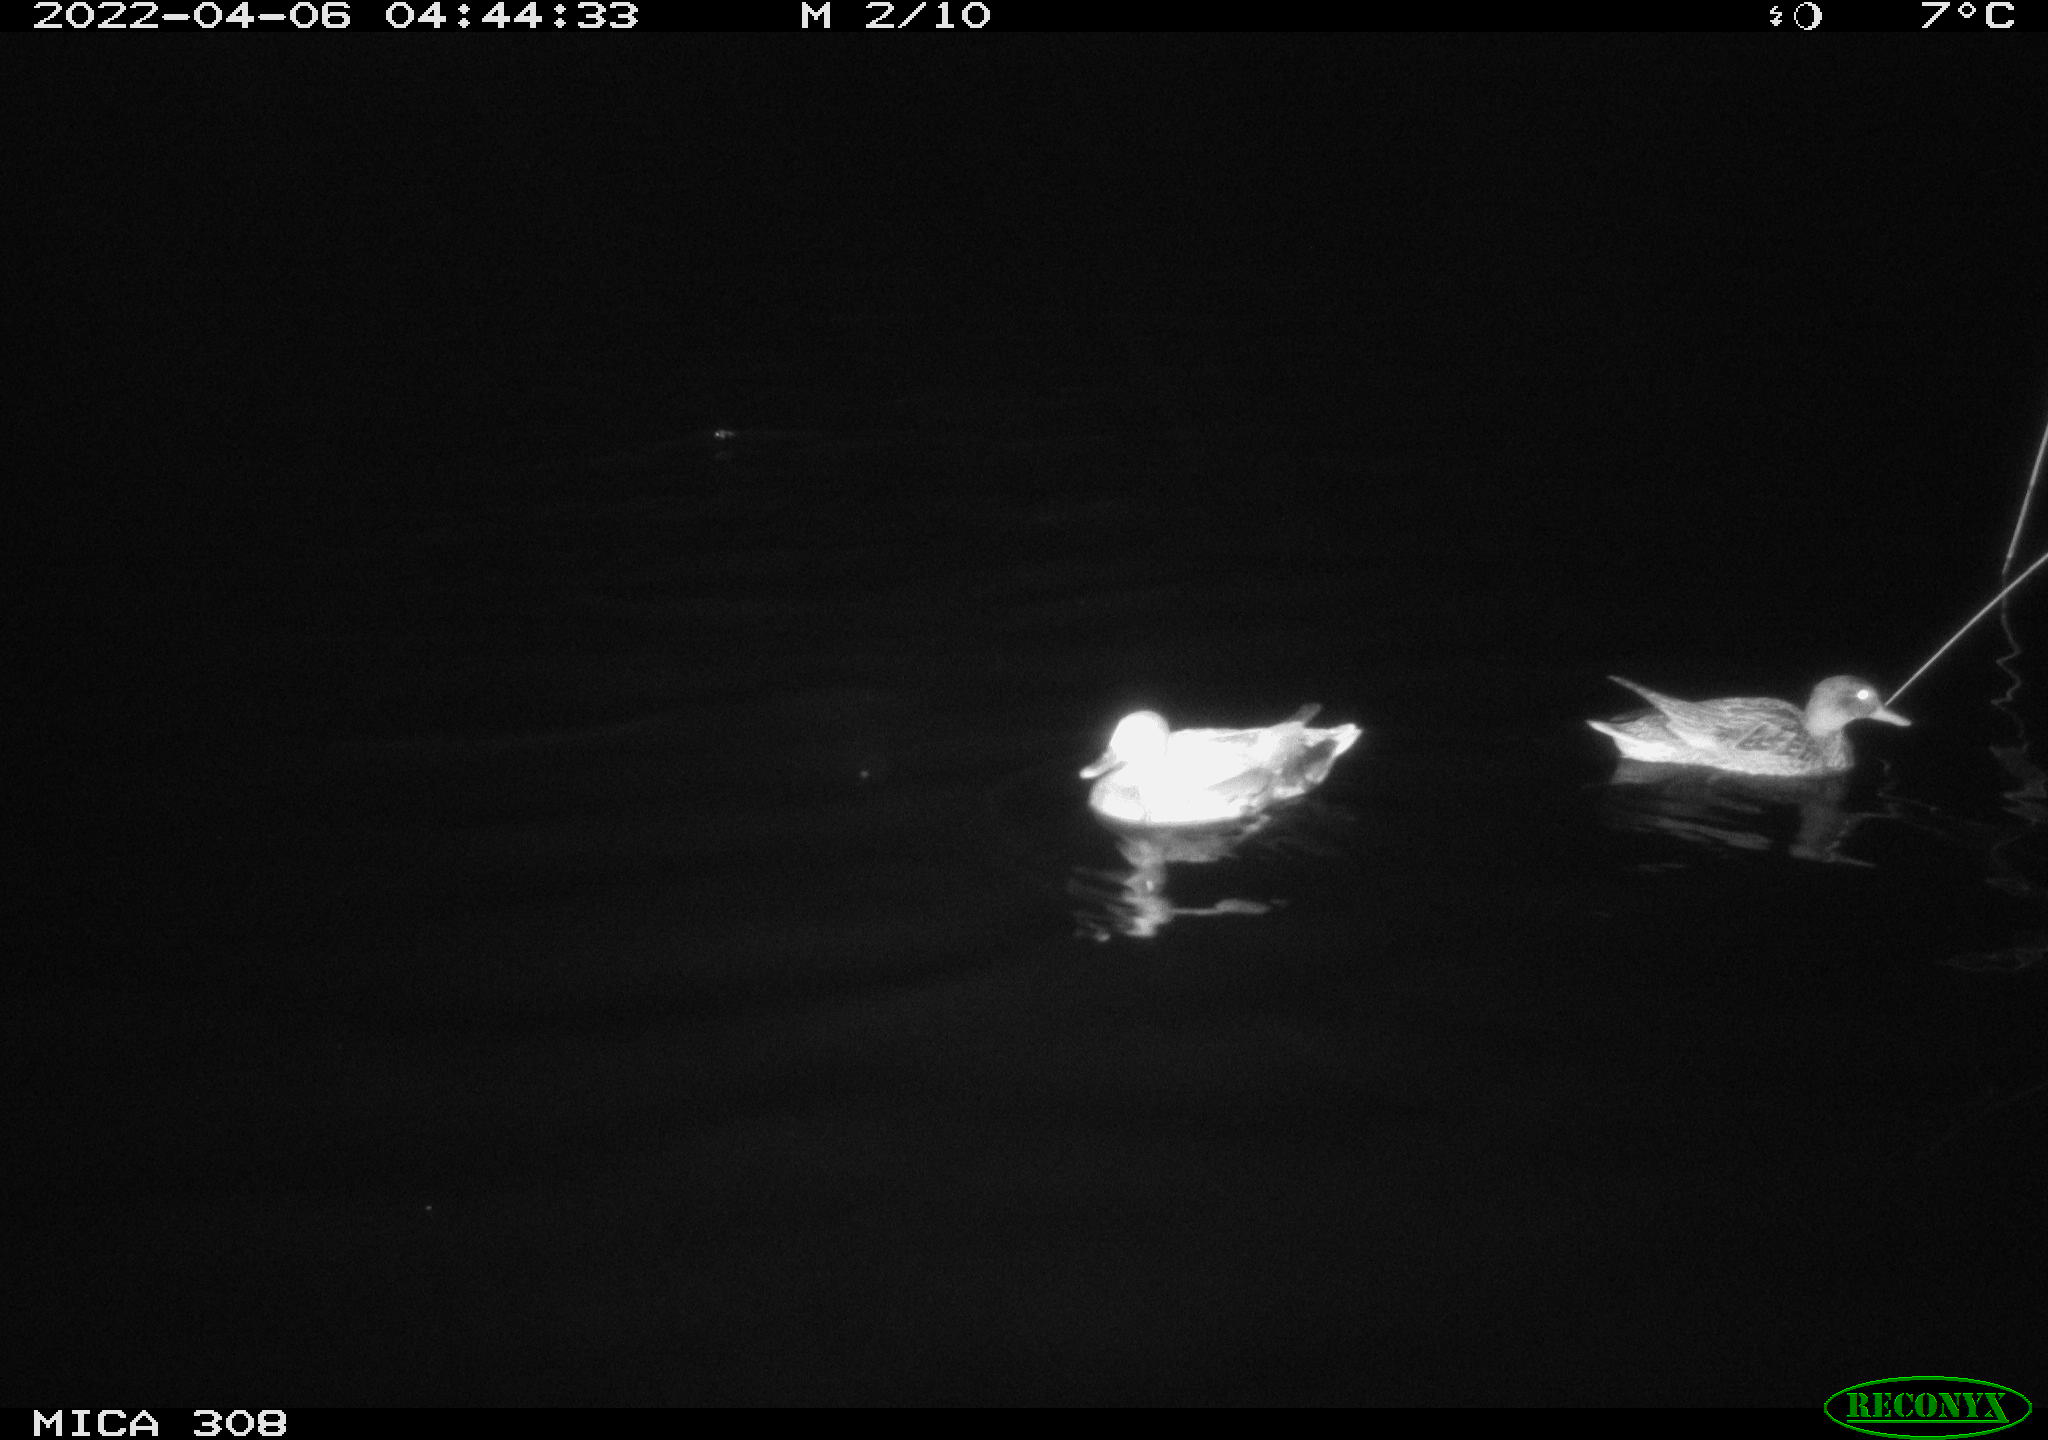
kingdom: Animalia
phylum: Chordata
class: Aves
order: Anseriformes
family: Anatidae
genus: Mareca
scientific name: Mareca strepera
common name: Gadwall
